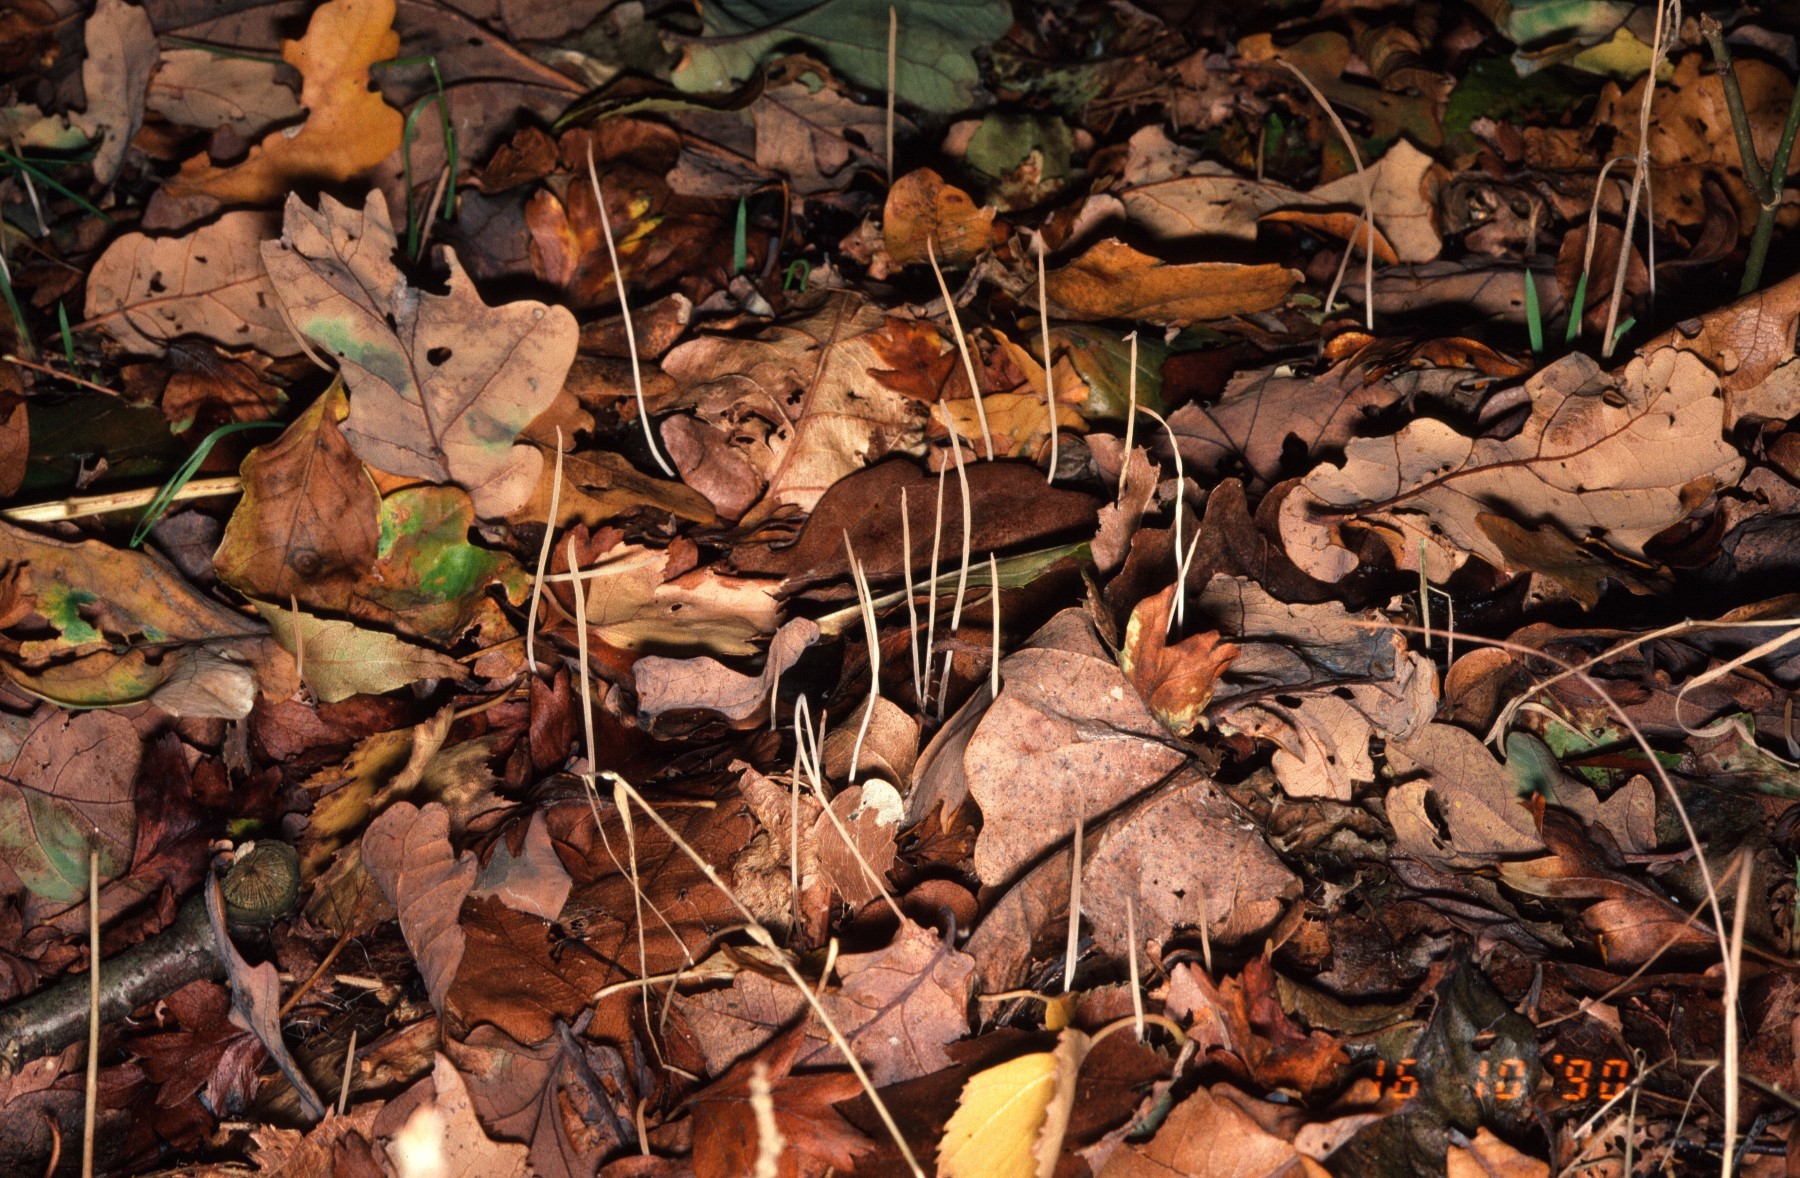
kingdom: Fungi
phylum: Basidiomycota
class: Agaricomycetes
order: Agaricales
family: Typhulaceae
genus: Typhula
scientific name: Typhula juncea
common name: trådagtig rørkølle
